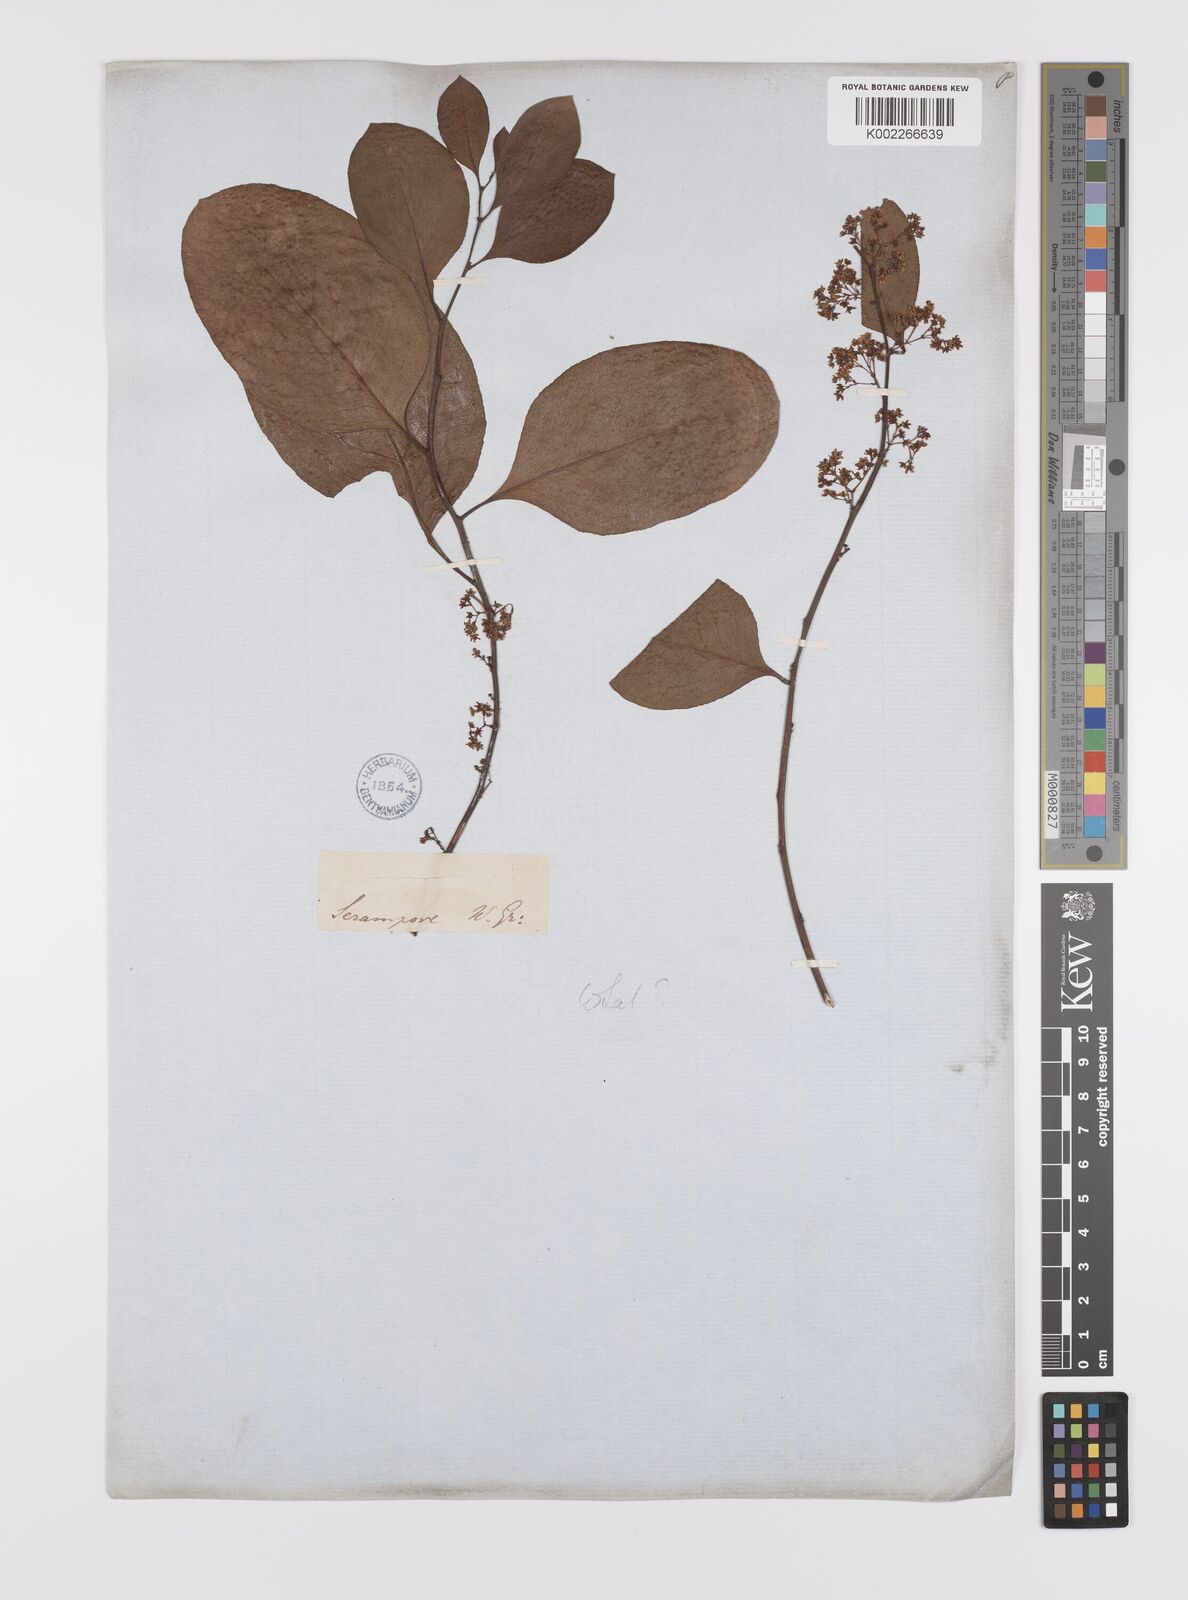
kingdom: Plantae
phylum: Tracheophyta
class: Magnoliopsida
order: Celastrales
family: Celastraceae
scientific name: Celastraceae
